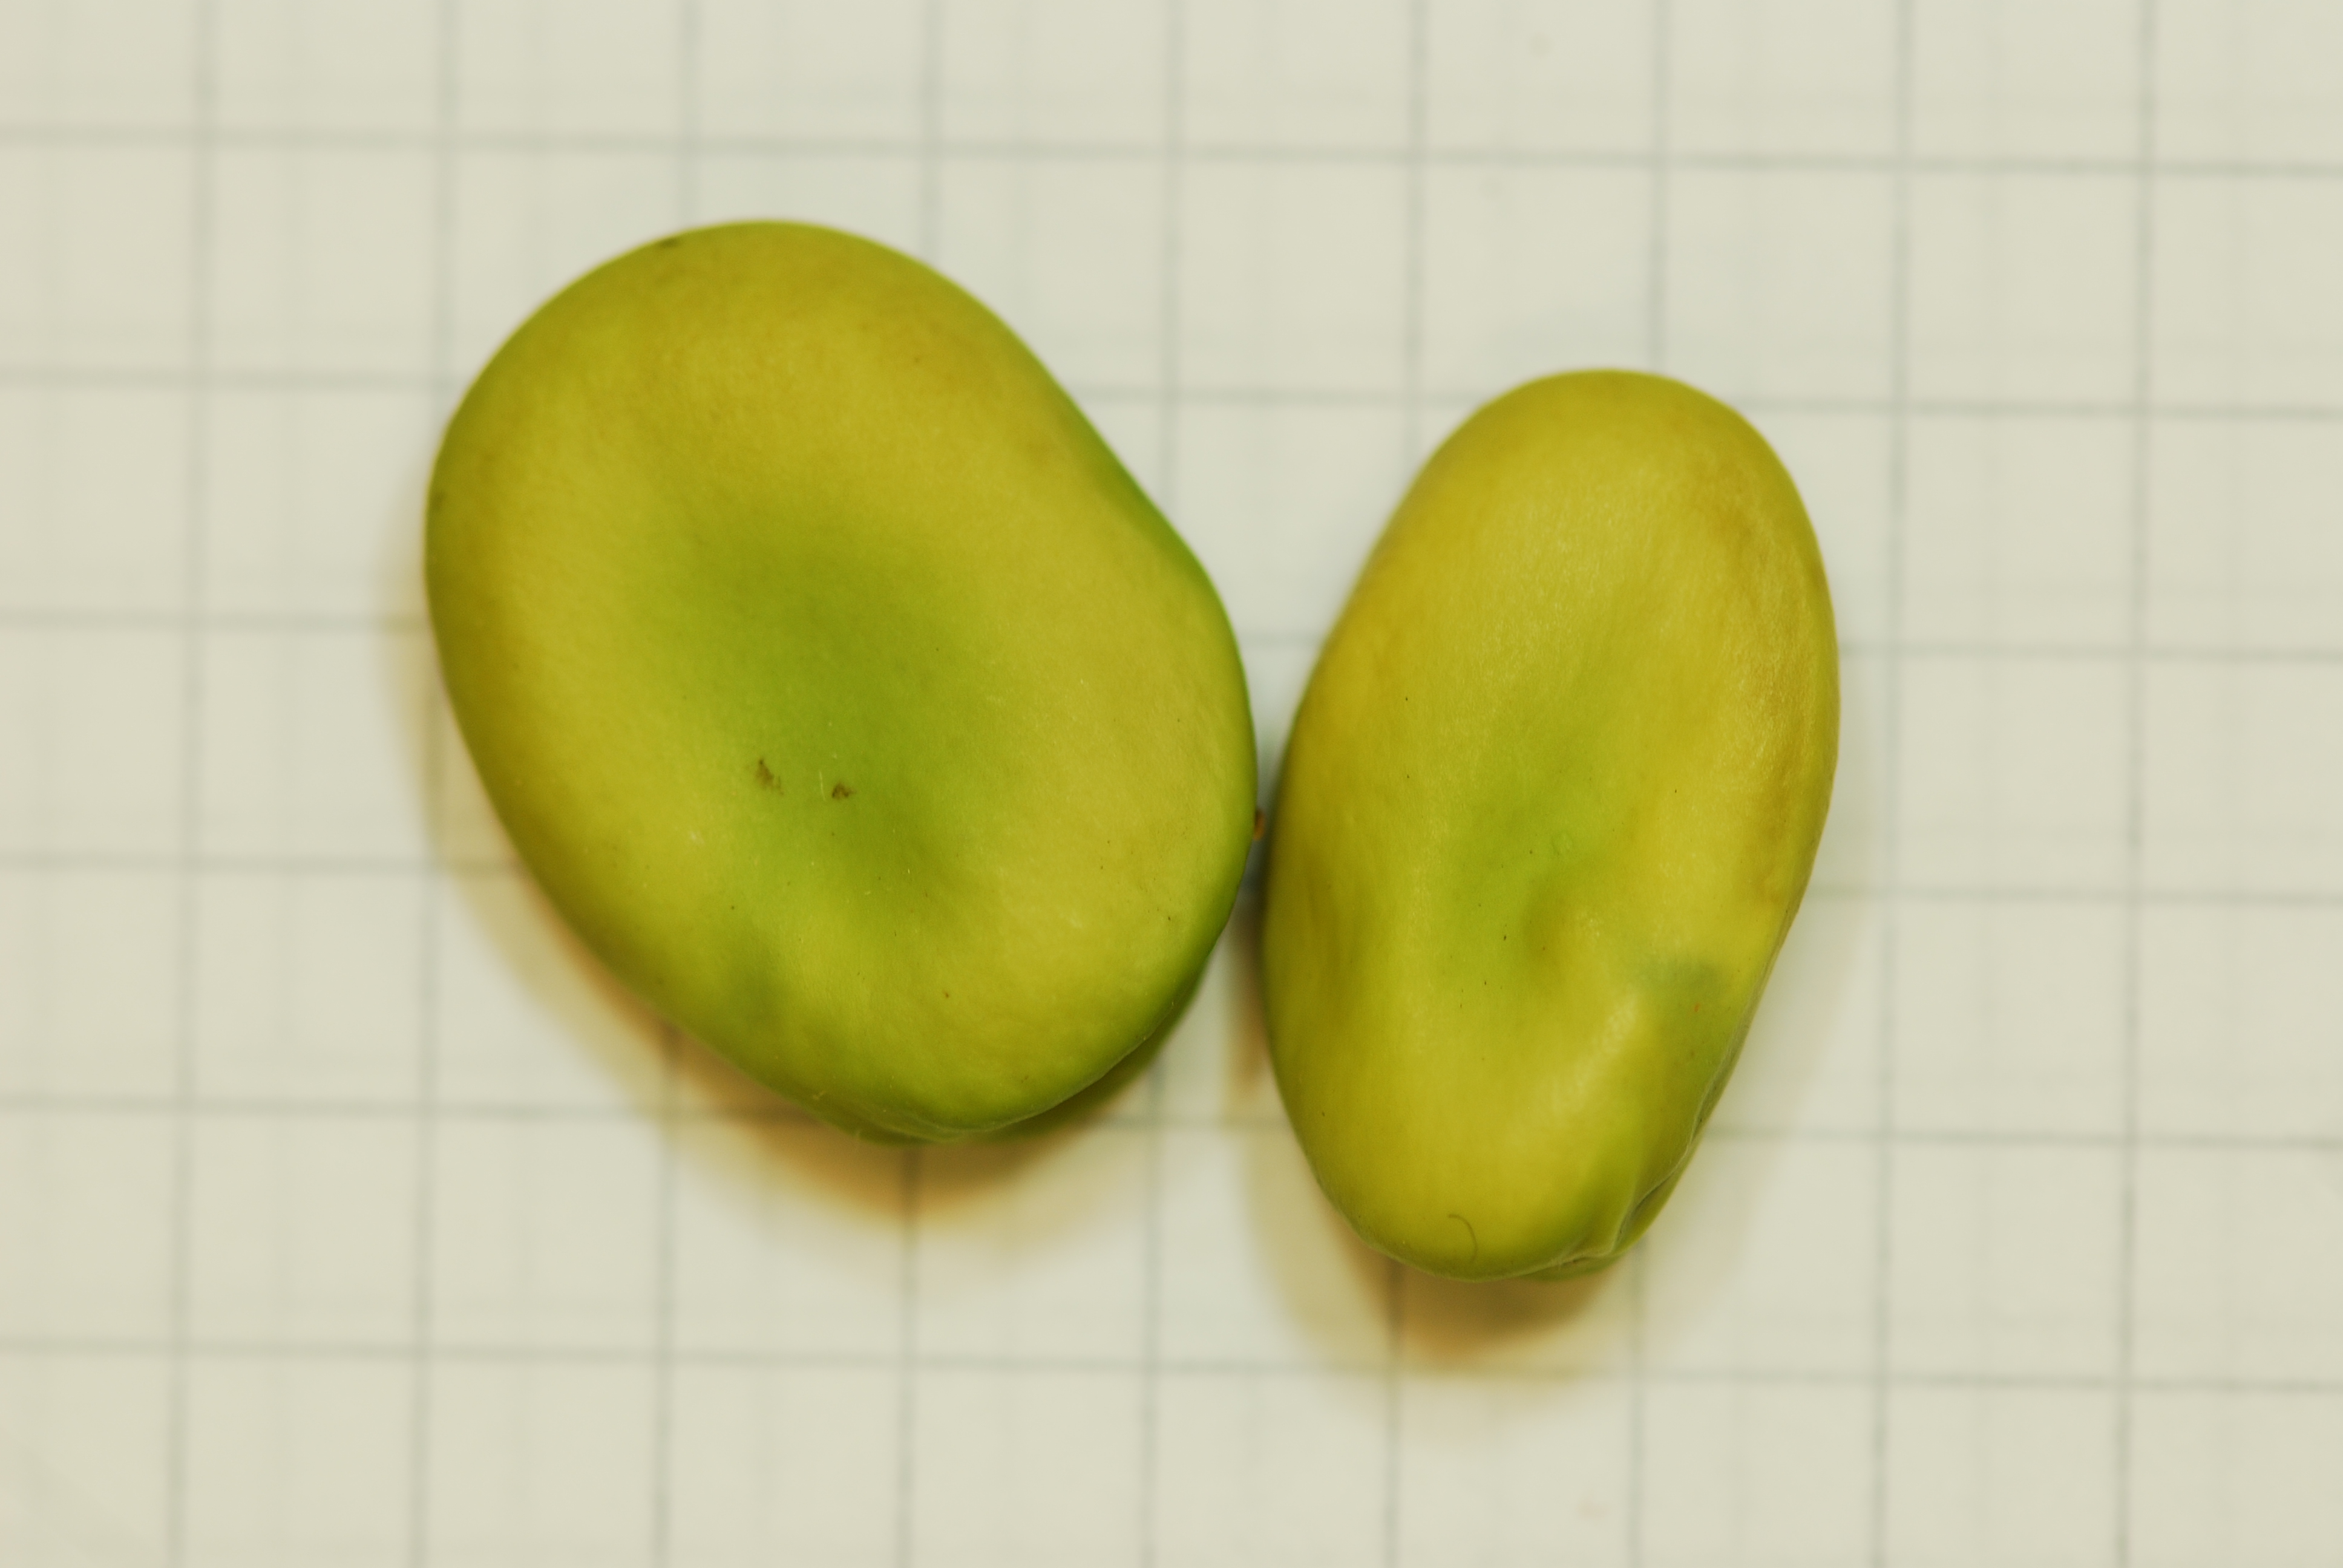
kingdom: Plantae
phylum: Tracheophyta
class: Magnoliopsida
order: Fabales
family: Fabaceae
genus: Vicia
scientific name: Vicia faba
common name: Broad bean
